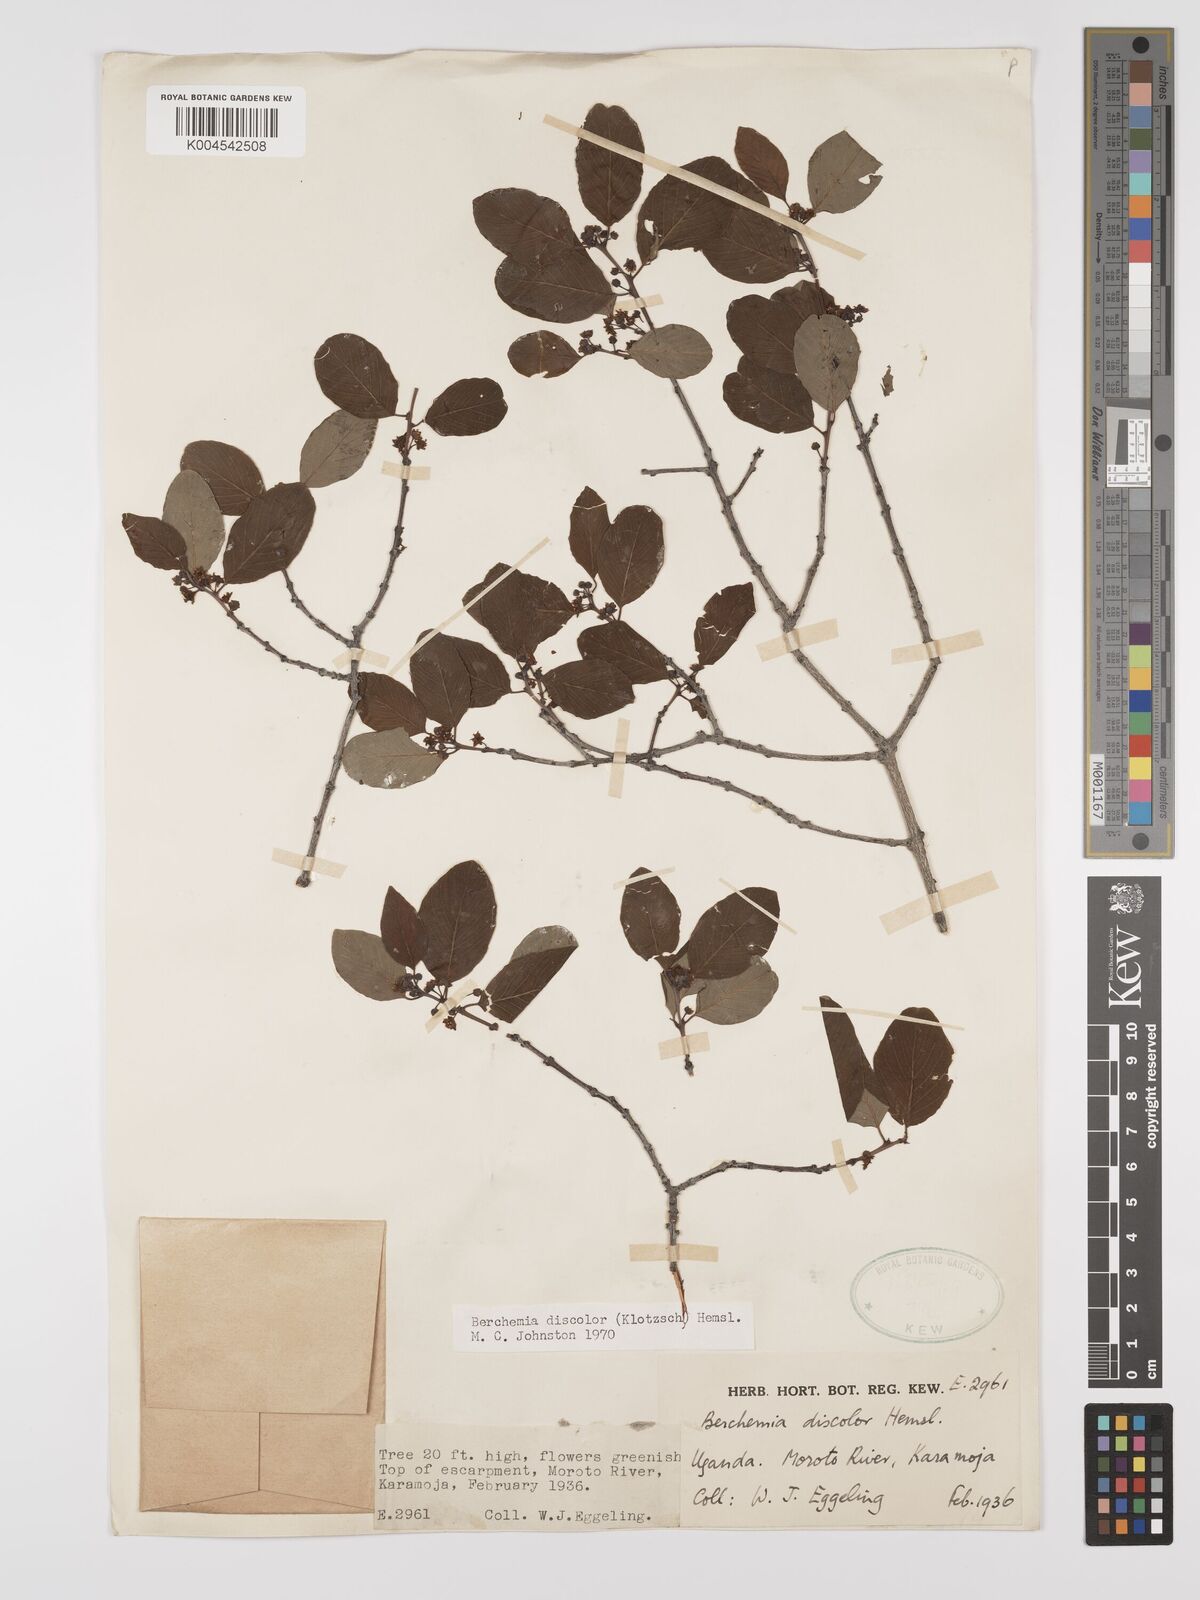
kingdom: Plantae
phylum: Tracheophyta
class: Magnoliopsida
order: Rosales
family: Rhamnaceae
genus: Phyllogeiton
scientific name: Phyllogeiton discolor
